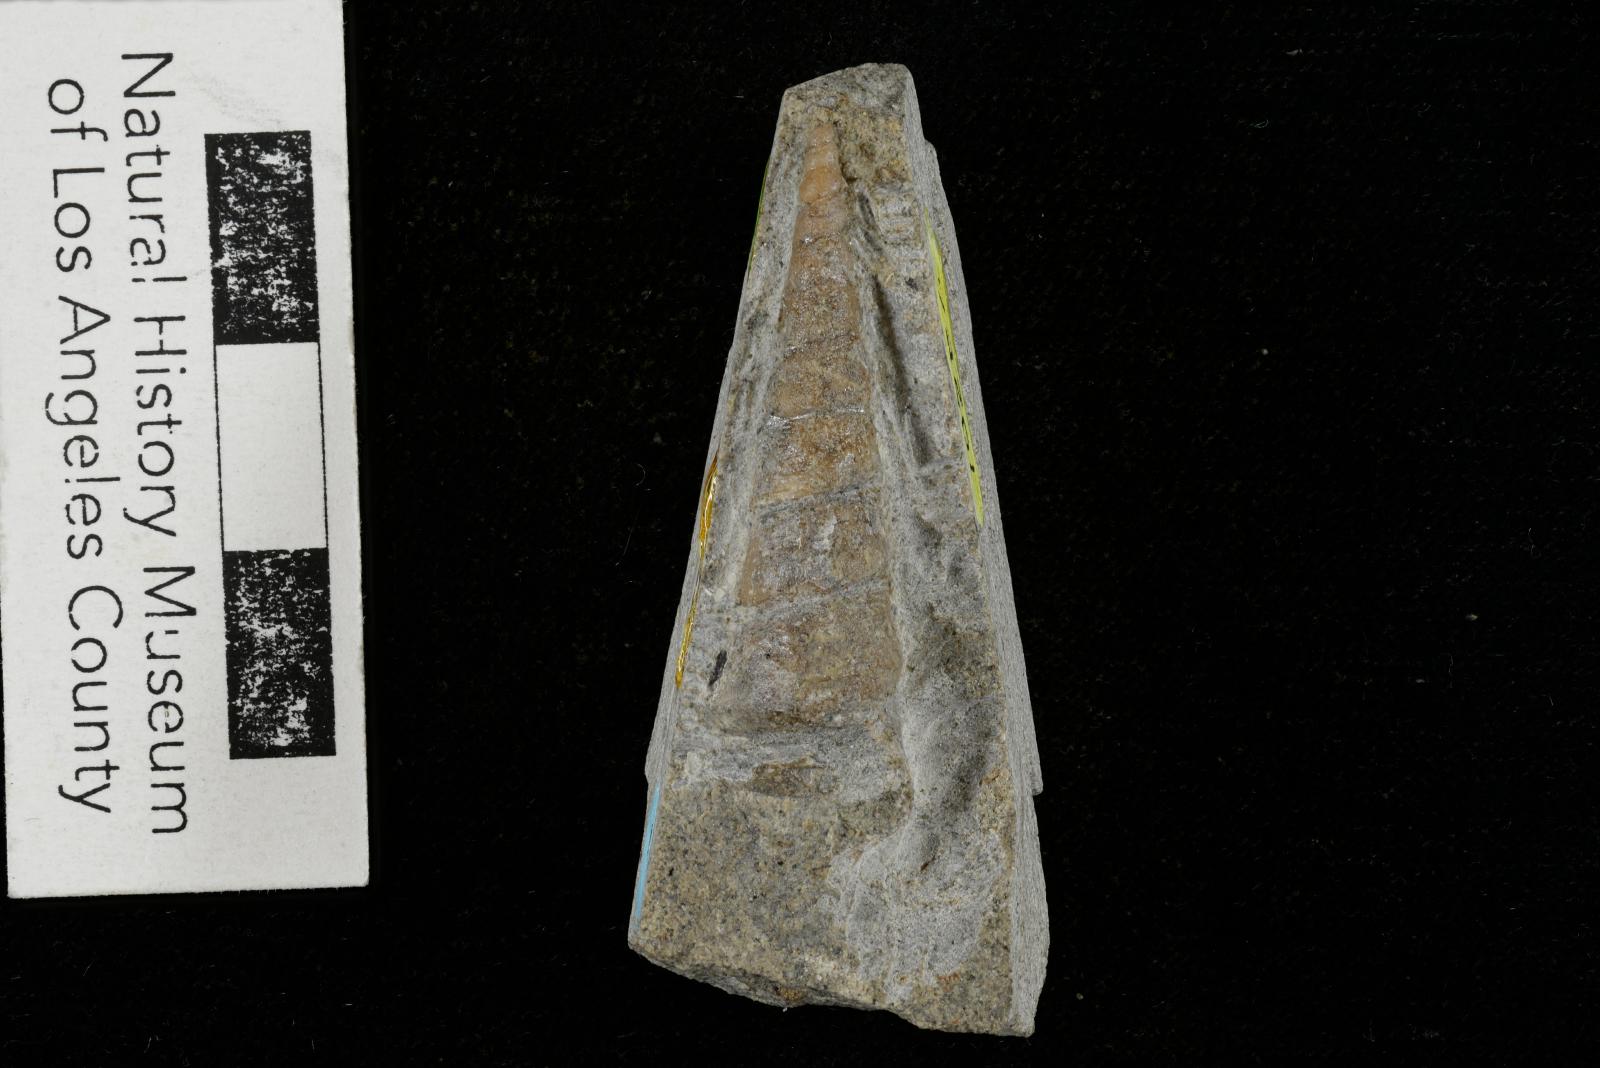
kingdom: Animalia
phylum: Mollusca
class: Gastropoda
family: Turritellidae
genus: Turritella
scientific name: Turritella chaneyi
